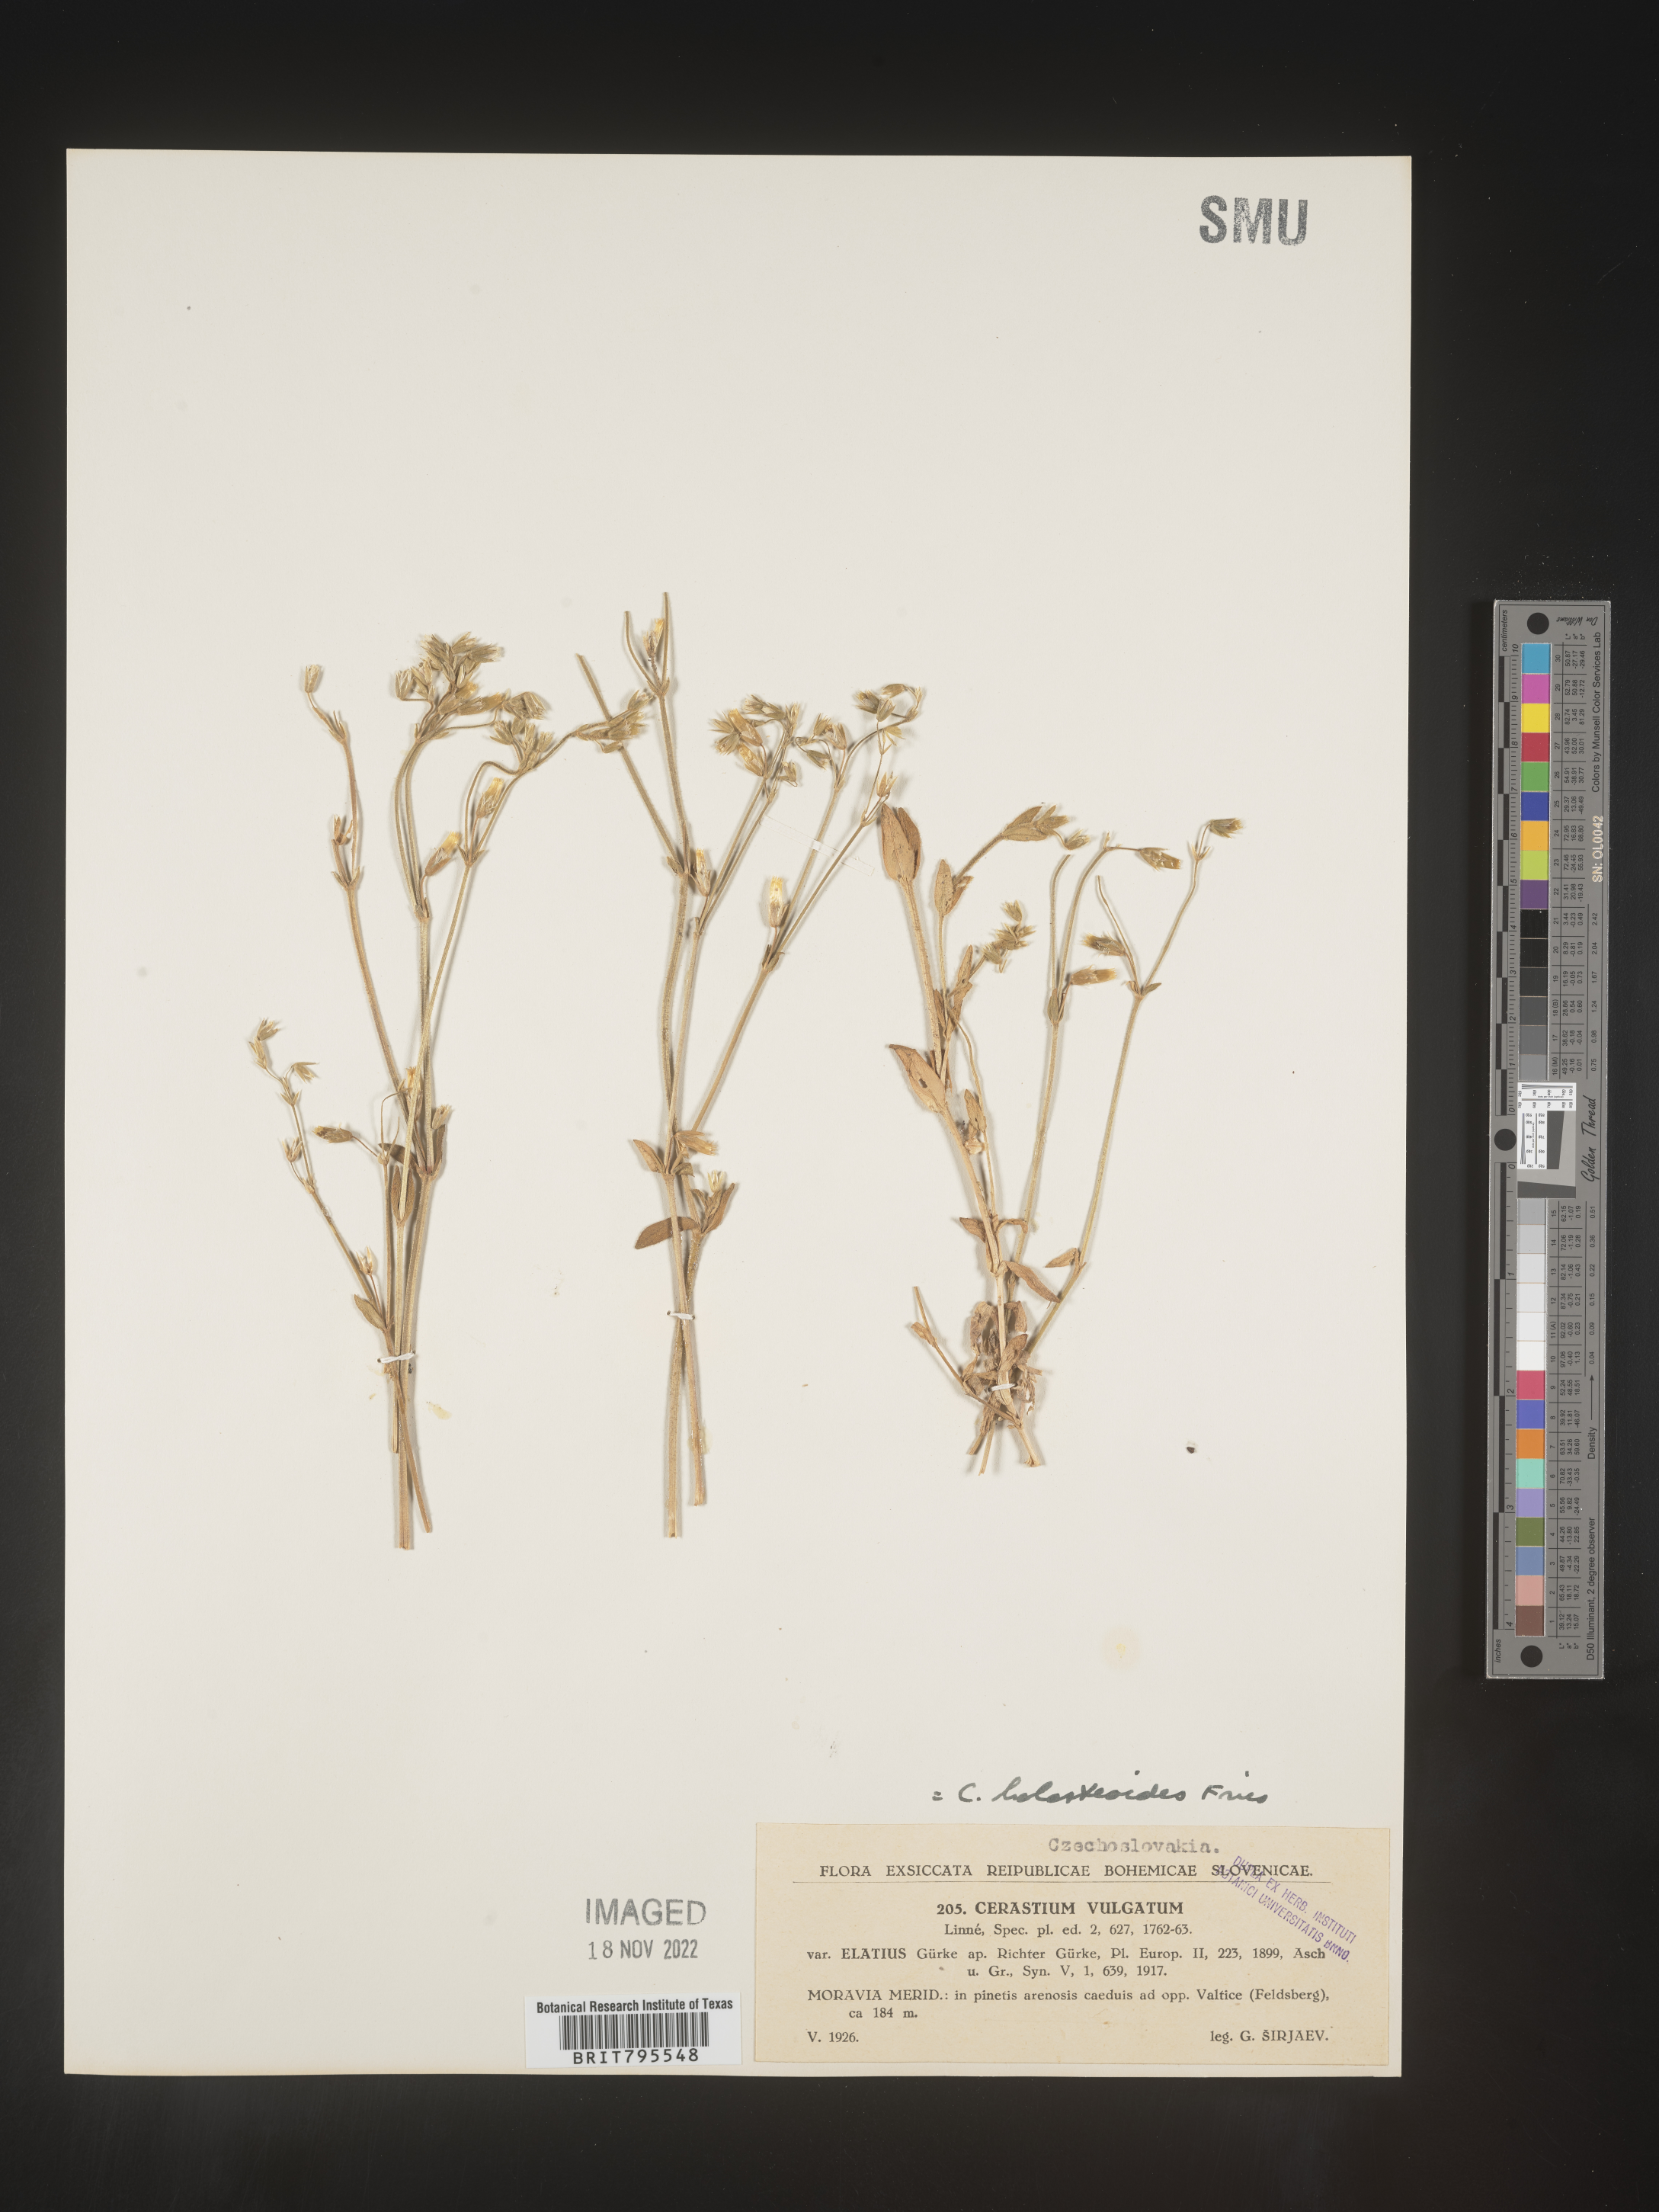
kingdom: Plantae
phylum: Tracheophyta
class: Magnoliopsida
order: Caryophyllales
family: Caryophyllaceae
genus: Cerastium
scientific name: Cerastium
